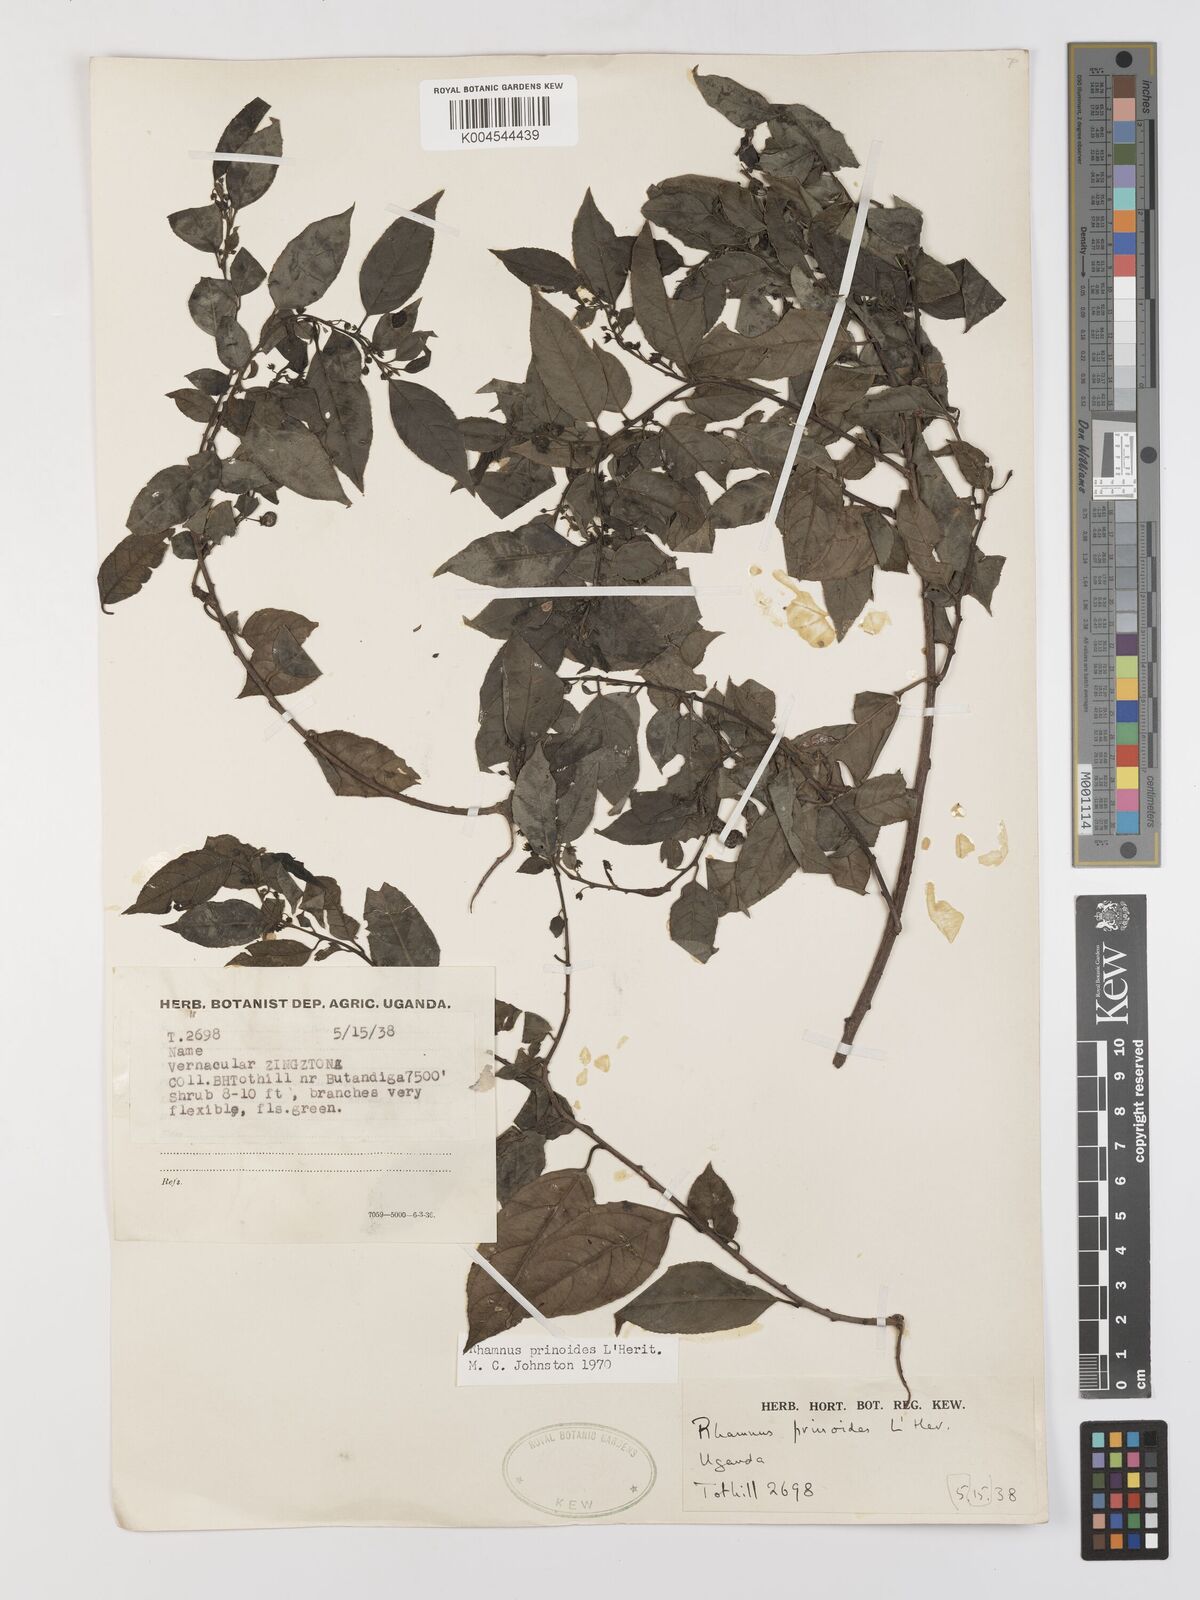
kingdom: Plantae
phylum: Tracheophyta
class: Magnoliopsida
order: Rosales
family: Rhamnaceae
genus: Rhamnus
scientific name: Rhamnus prinoides
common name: Dogwood
